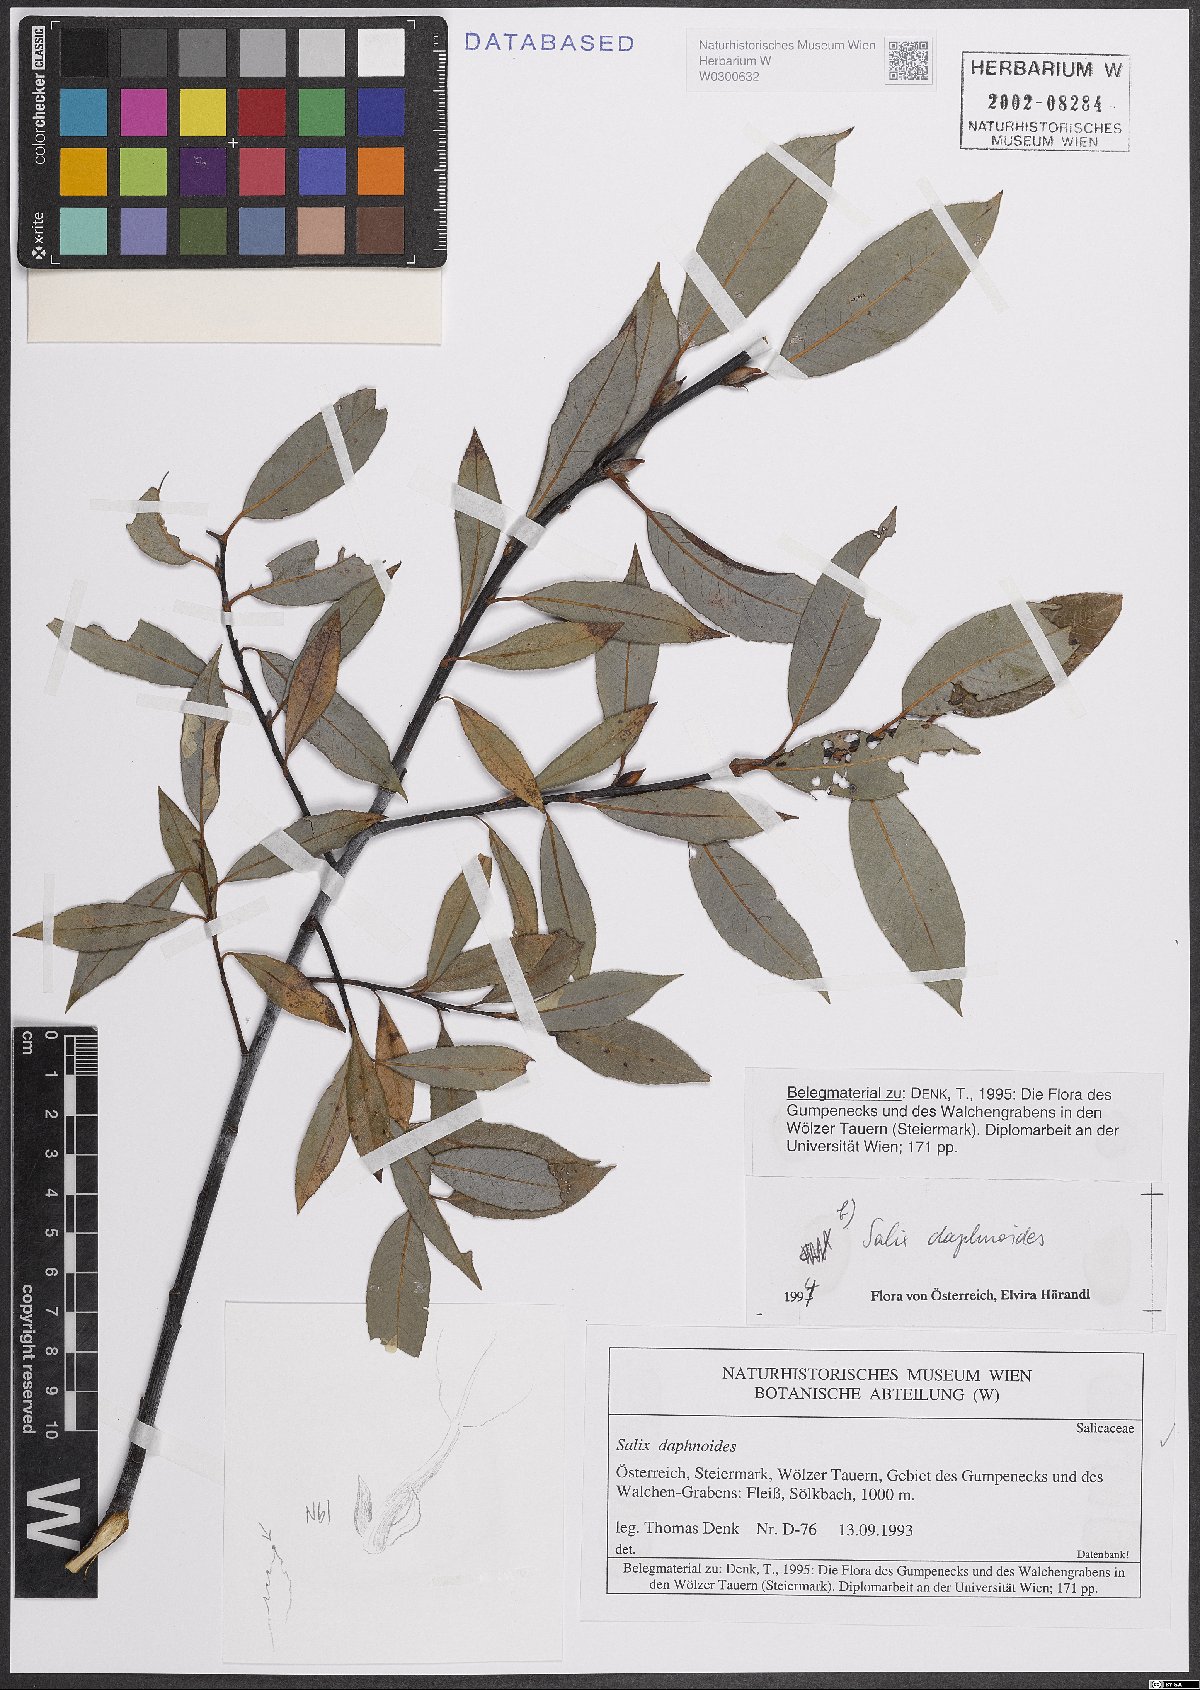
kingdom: Plantae
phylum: Tracheophyta
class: Magnoliopsida
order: Malpighiales
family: Salicaceae
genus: Salix
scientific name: Salix daphnoides
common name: European violet-willow
